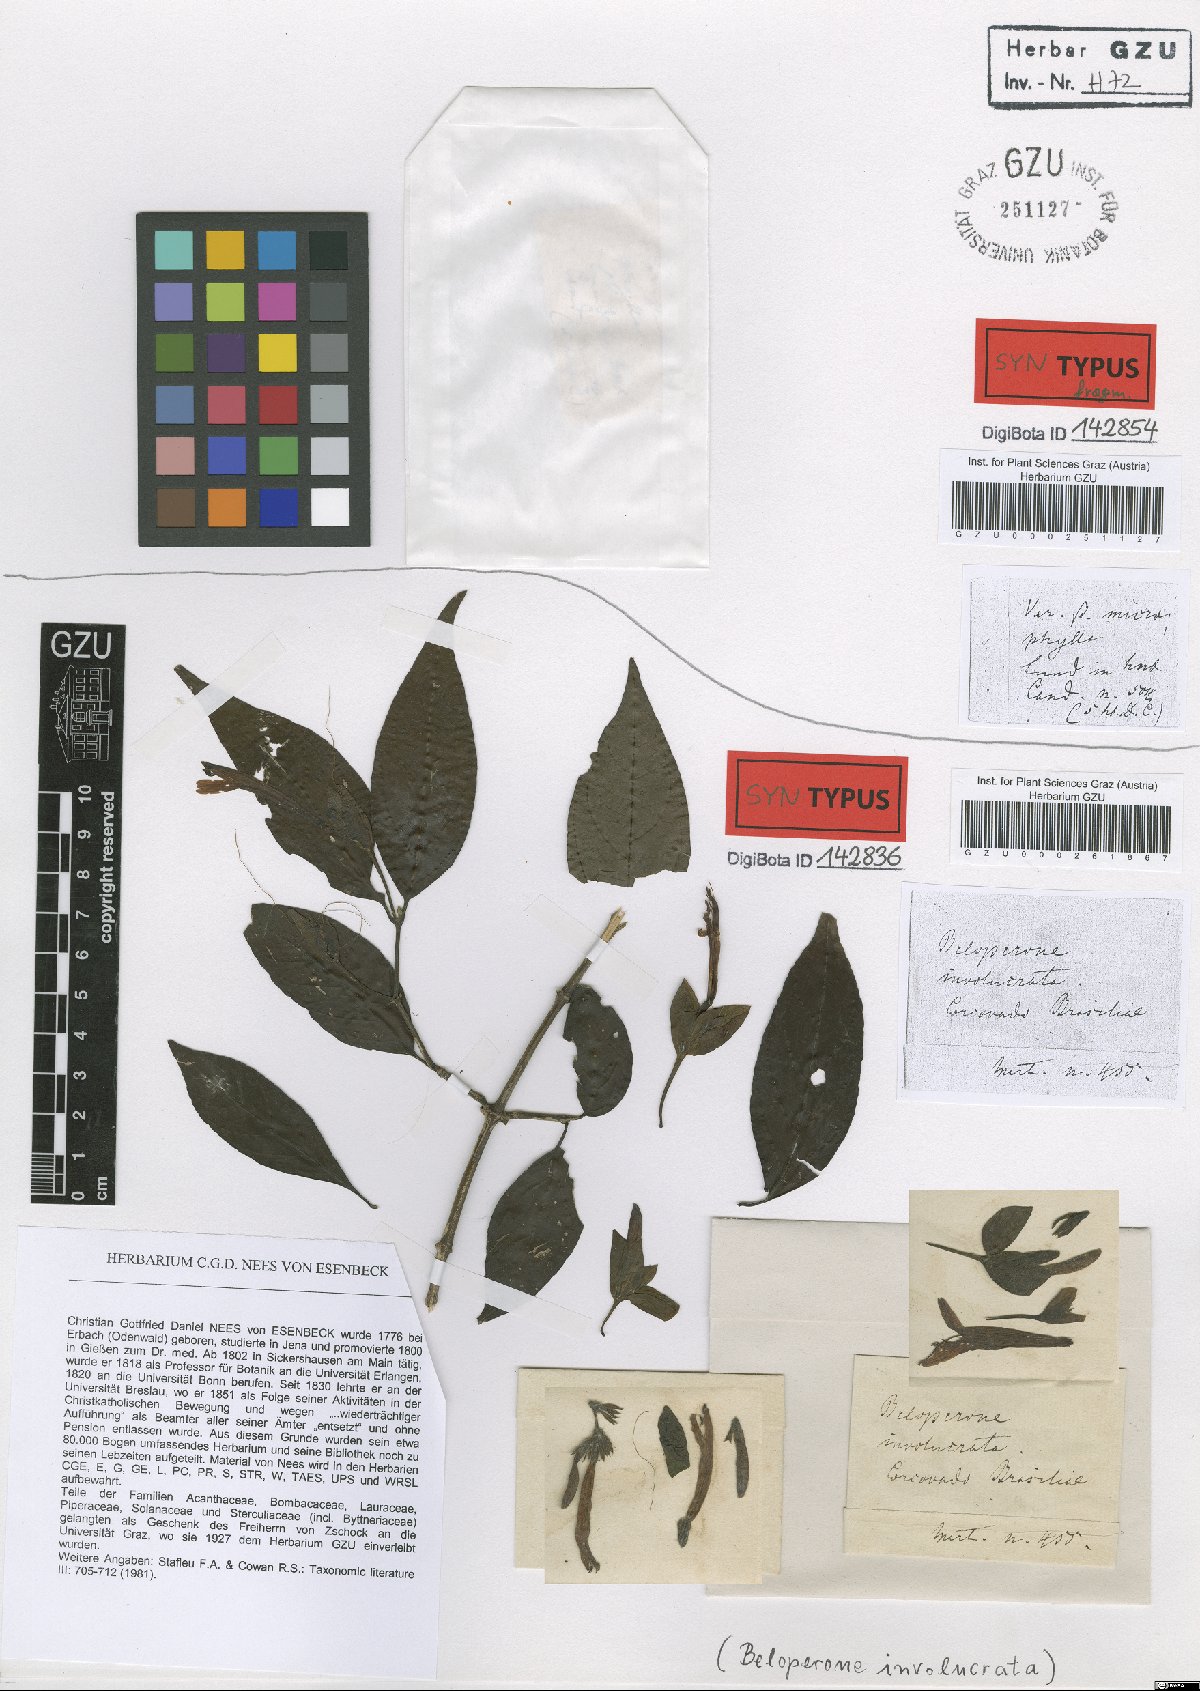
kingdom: Plantae
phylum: Tracheophyta
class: Magnoliopsida
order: Lamiales
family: Acanthaceae
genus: Justicia
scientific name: Justicia involucrata
